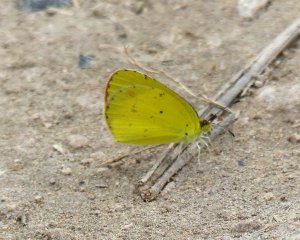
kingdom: Animalia
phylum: Arthropoda
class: Insecta
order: Lepidoptera
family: Pieridae
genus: Pyrisitia
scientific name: Pyrisitia lisa
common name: Little Yellow
